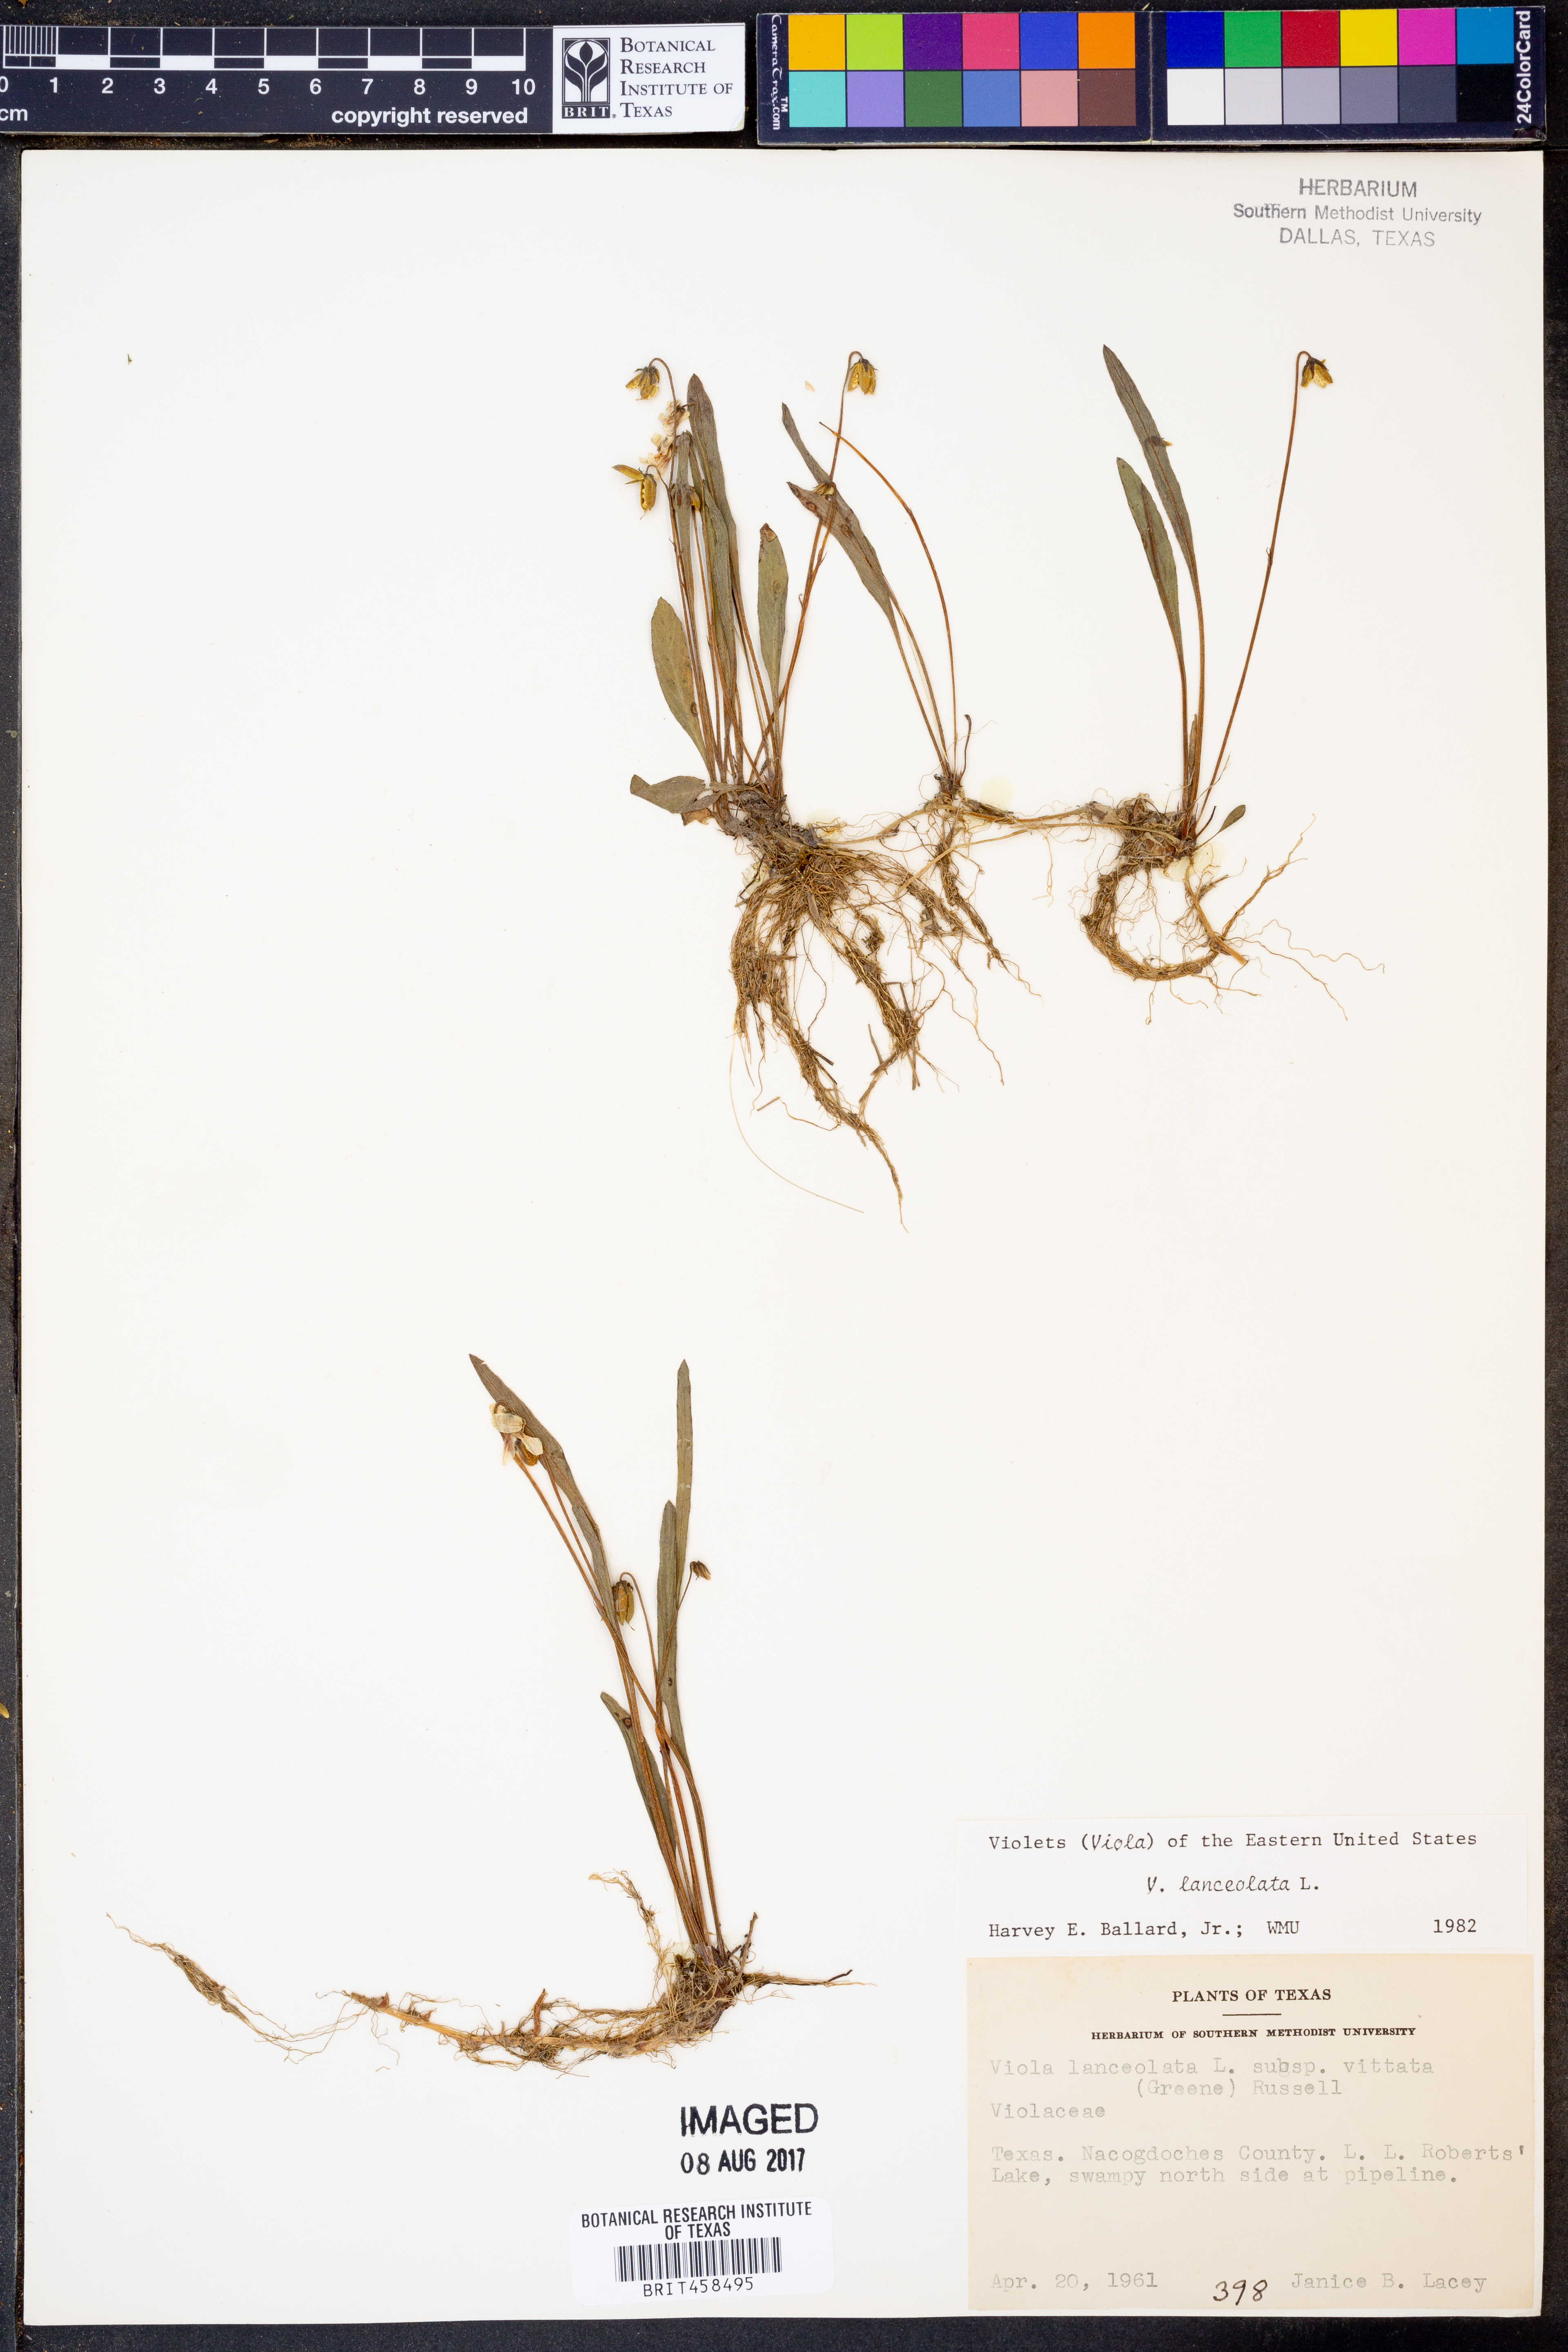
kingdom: Plantae
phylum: Tracheophyta
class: Magnoliopsida
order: Malpighiales
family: Violaceae
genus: Viola
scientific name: Viola lanceolata
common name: Bog white violet
